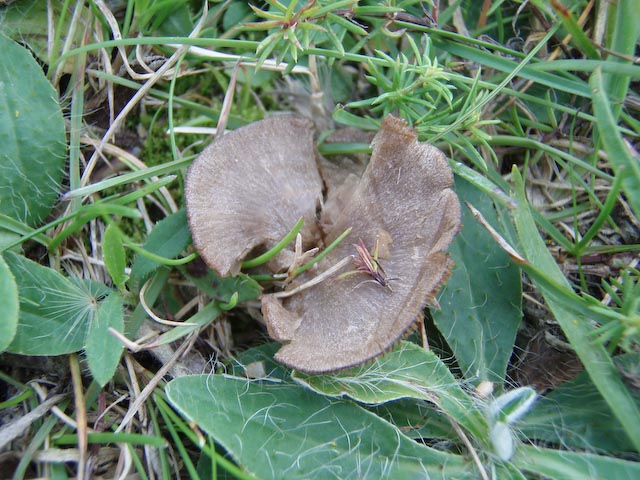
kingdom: Fungi
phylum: Basidiomycota
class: Agaricomycetes
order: Agaricales
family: Entolomataceae
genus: Entoloma
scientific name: Entoloma undatum
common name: bæltet rødblad
